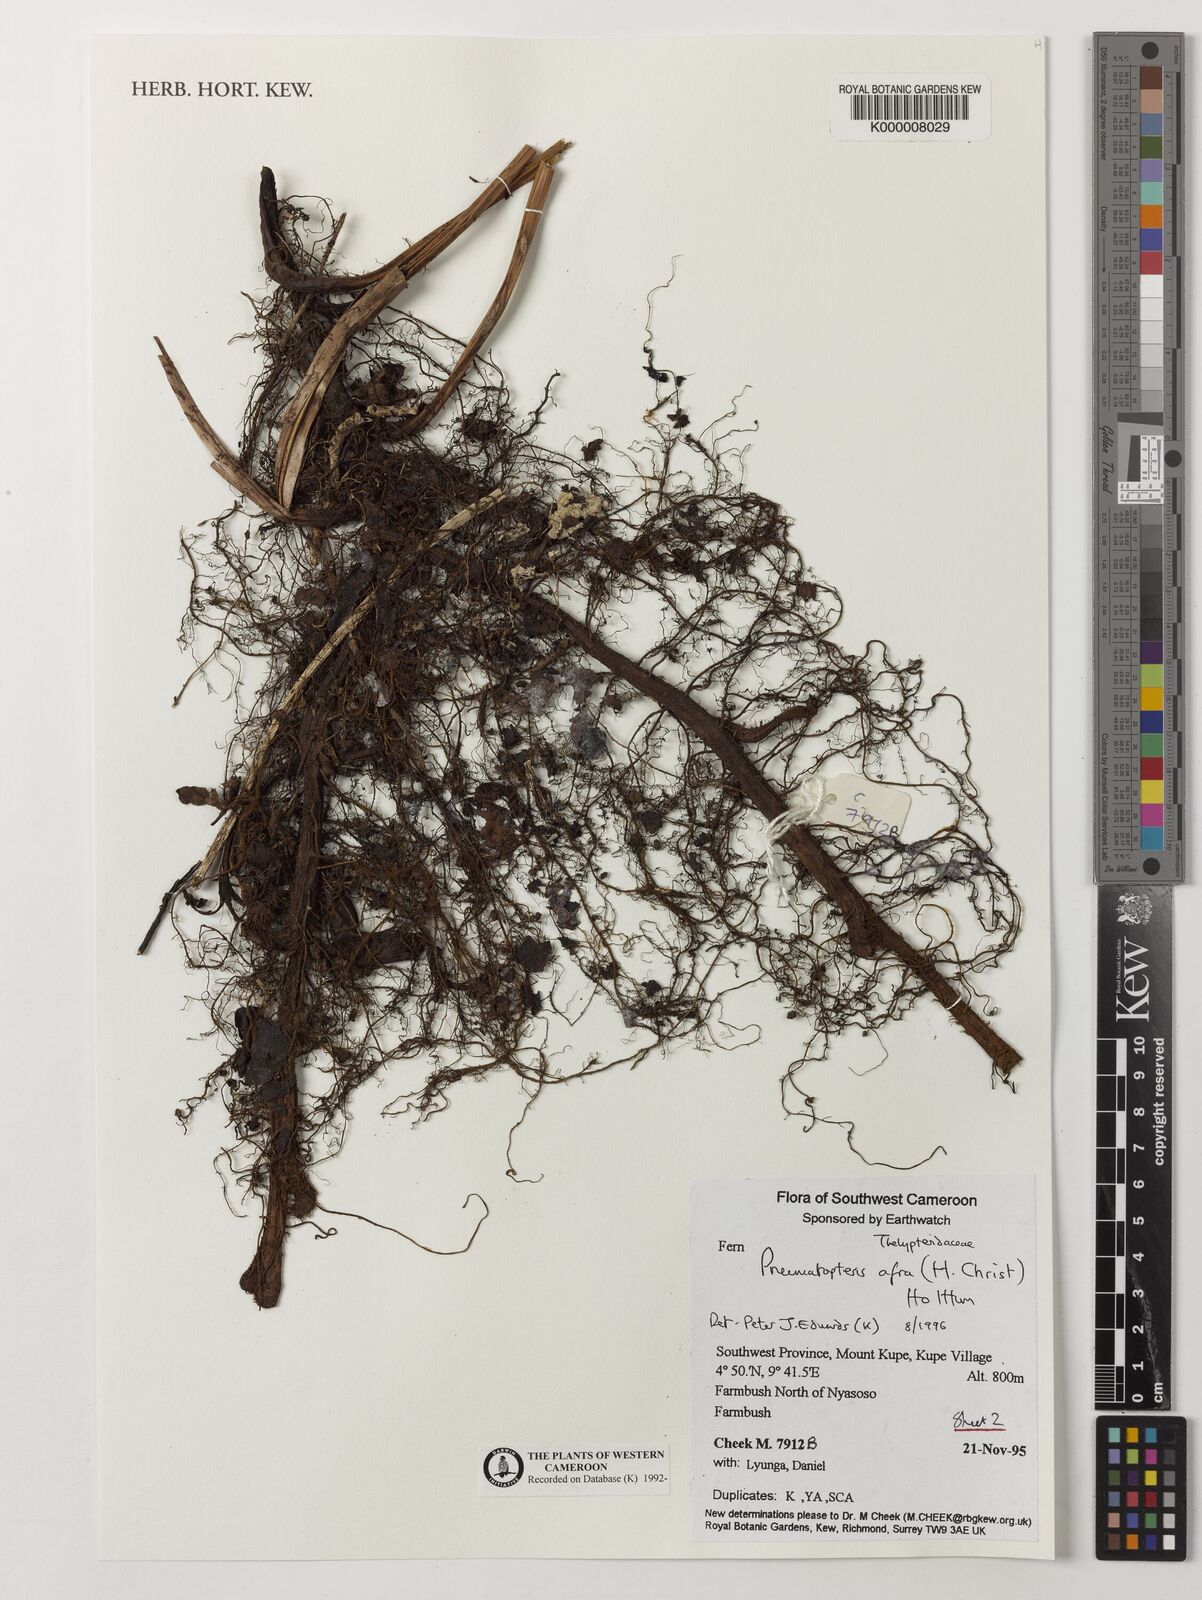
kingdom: Plantae
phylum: Tracheophyta
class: Polypodiopsida
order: Polypodiales
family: Thelypteridaceae
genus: Abacopteris
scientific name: Abacopteris afra
